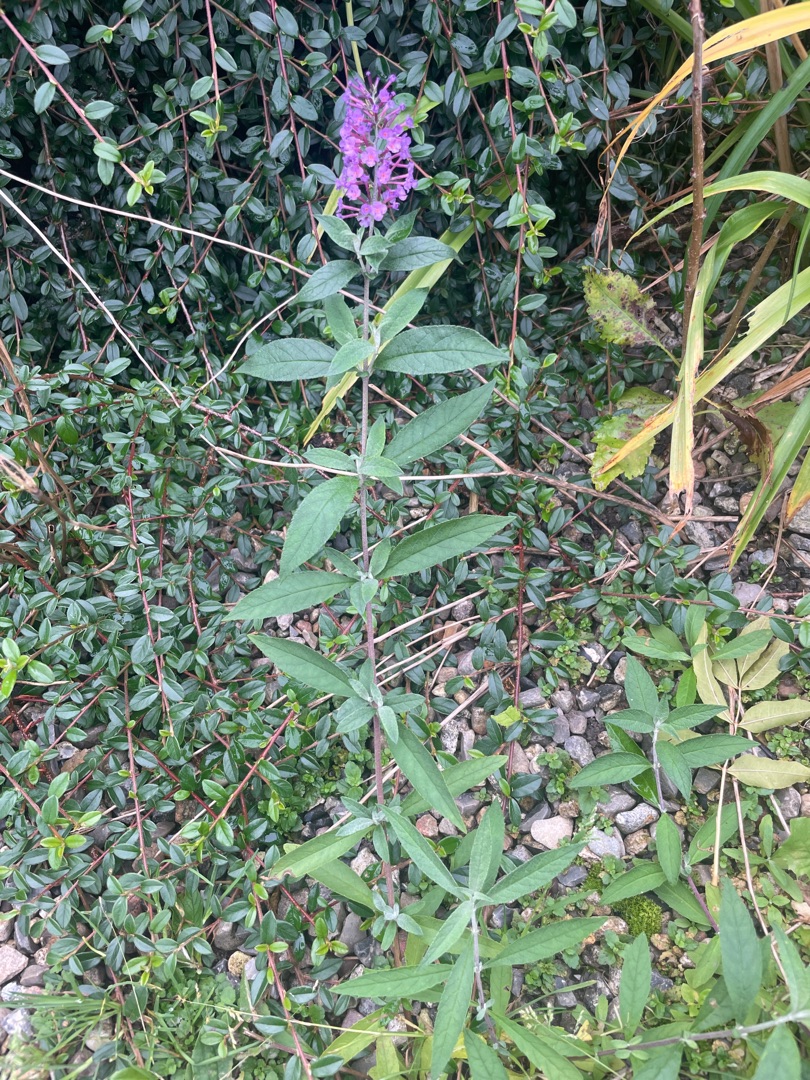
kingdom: Plantae
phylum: Tracheophyta
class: Magnoliopsida
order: Lamiales
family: Scrophulariaceae
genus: Buddleja
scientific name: Buddleja davidii
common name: Sommerfuglebusk
